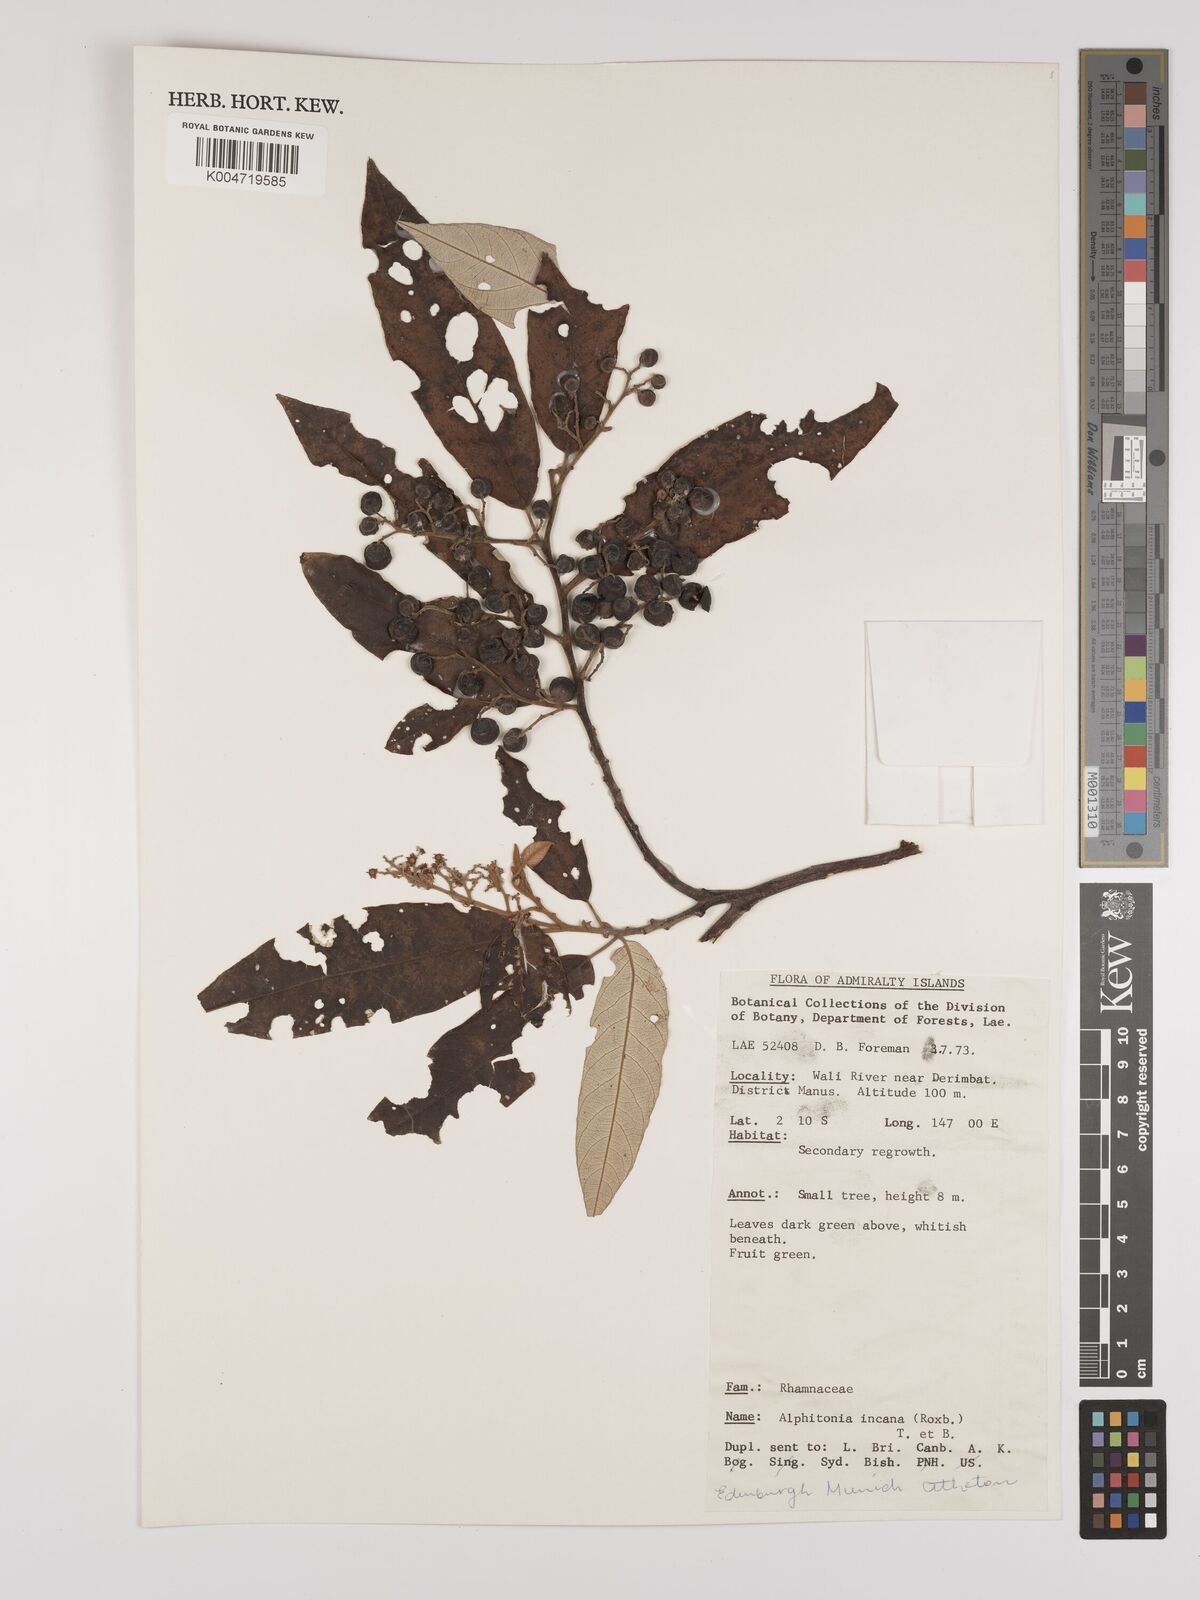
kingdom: Plantae
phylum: Tracheophyta
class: Magnoliopsida
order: Rosales
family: Rhamnaceae
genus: Alphitonia
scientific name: Alphitonia incana
